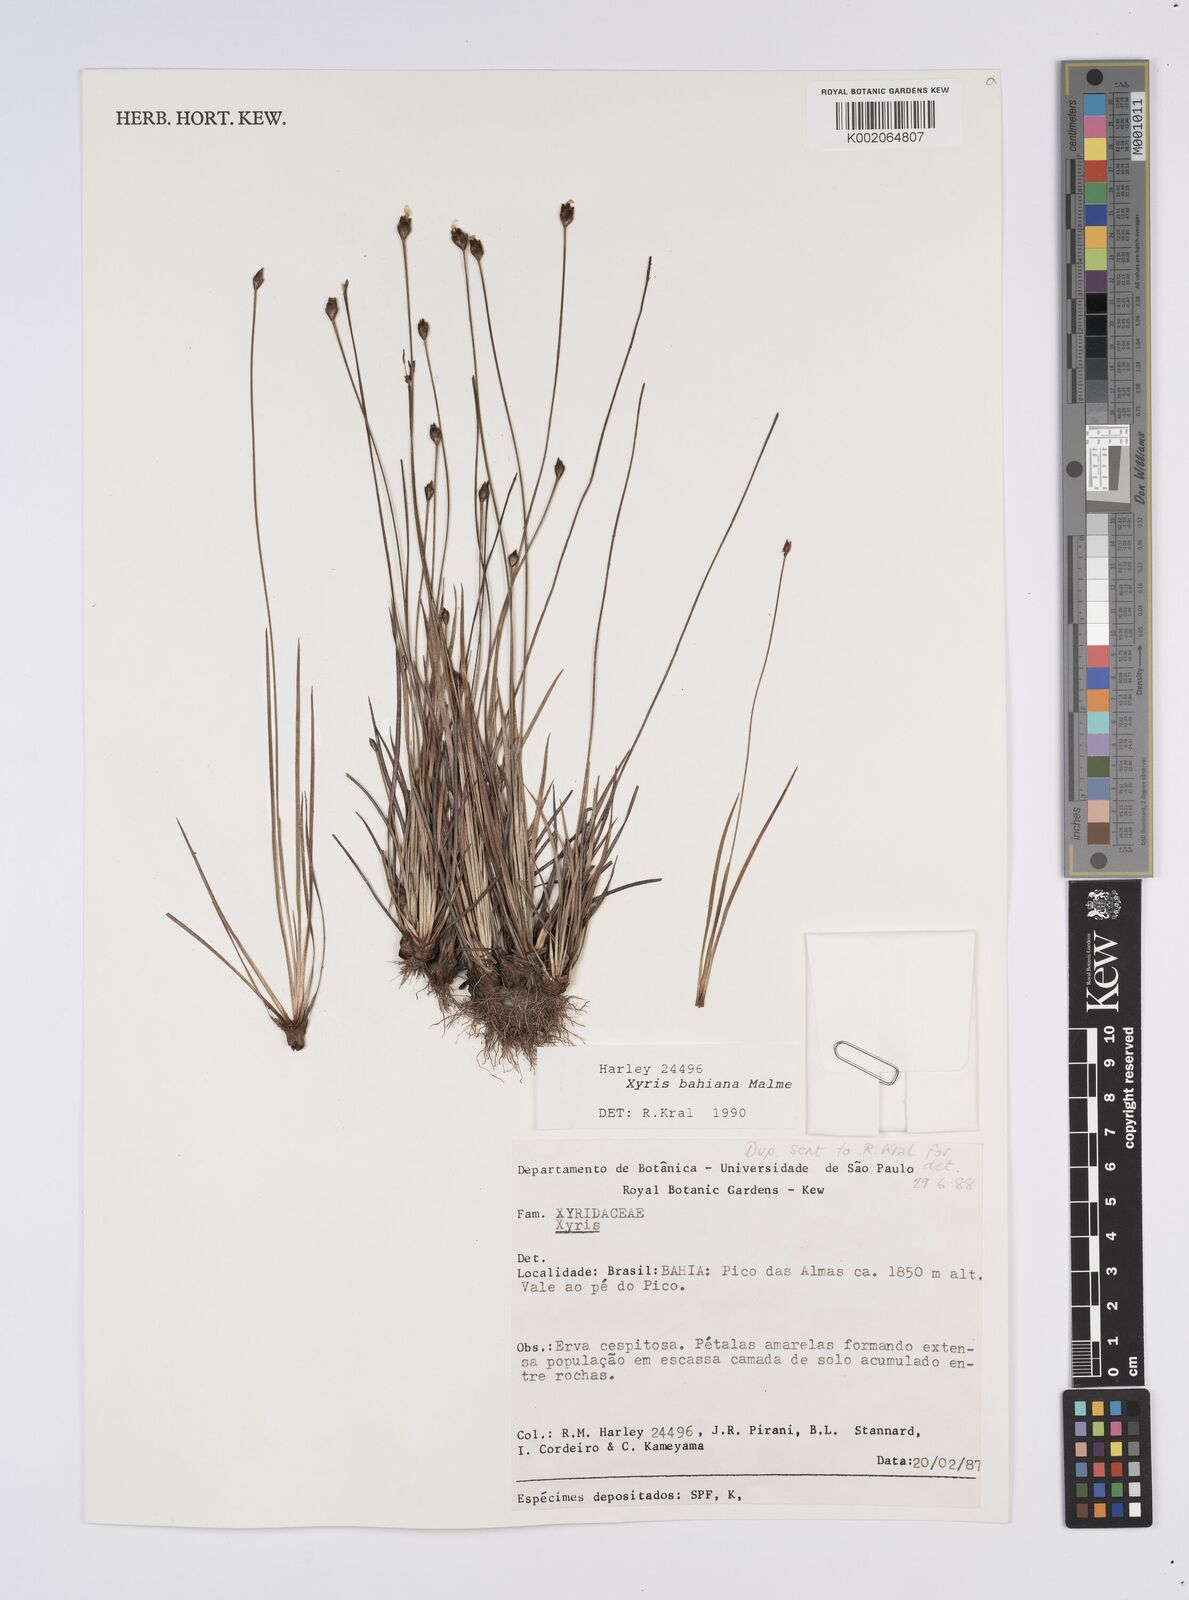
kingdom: Plantae
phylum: Tracheophyta
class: Liliopsida
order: Poales
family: Xyridaceae
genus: Xyris
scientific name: Xyris bahiana
